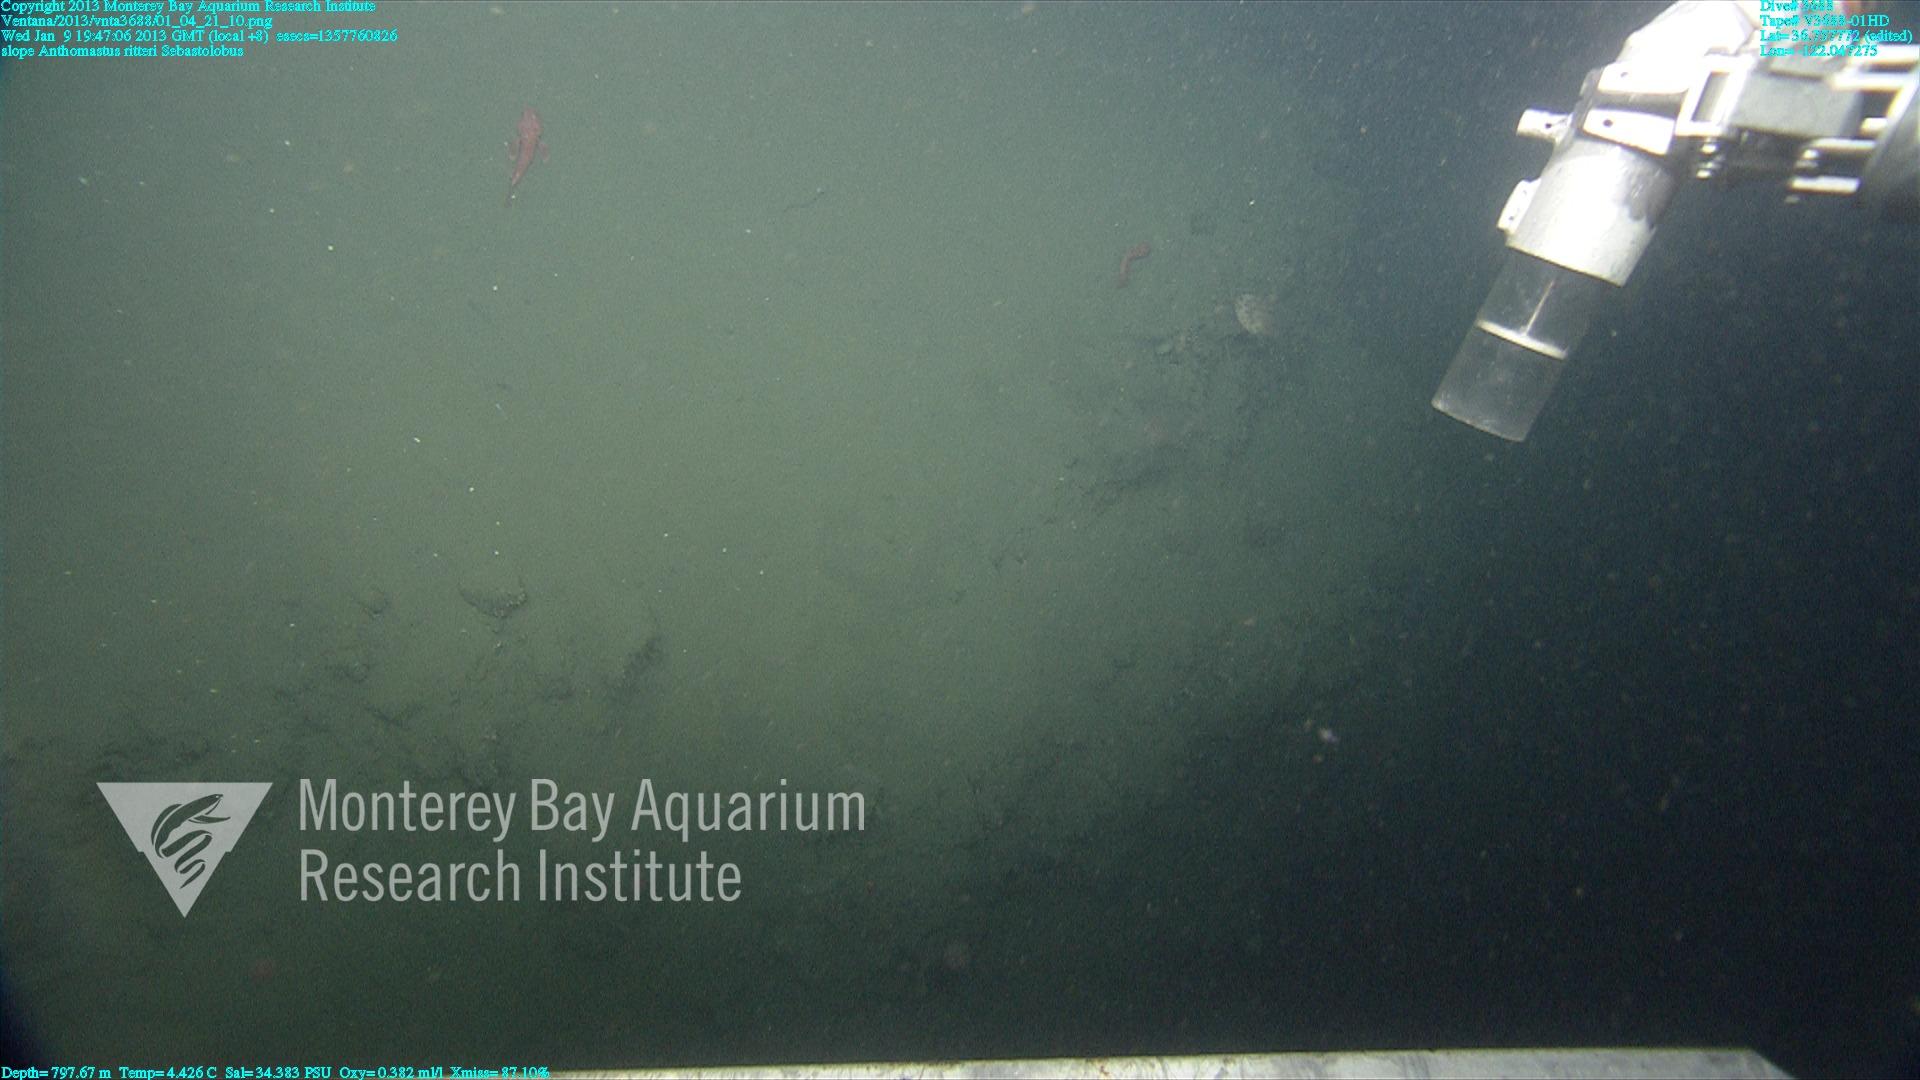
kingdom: Animalia
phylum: Cnidaria
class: Anthozoa
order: Scleralcyonacea
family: Coralliidae
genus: Heteropolypus
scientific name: Heteropolypus ritteri
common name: Ritter's soft coral
